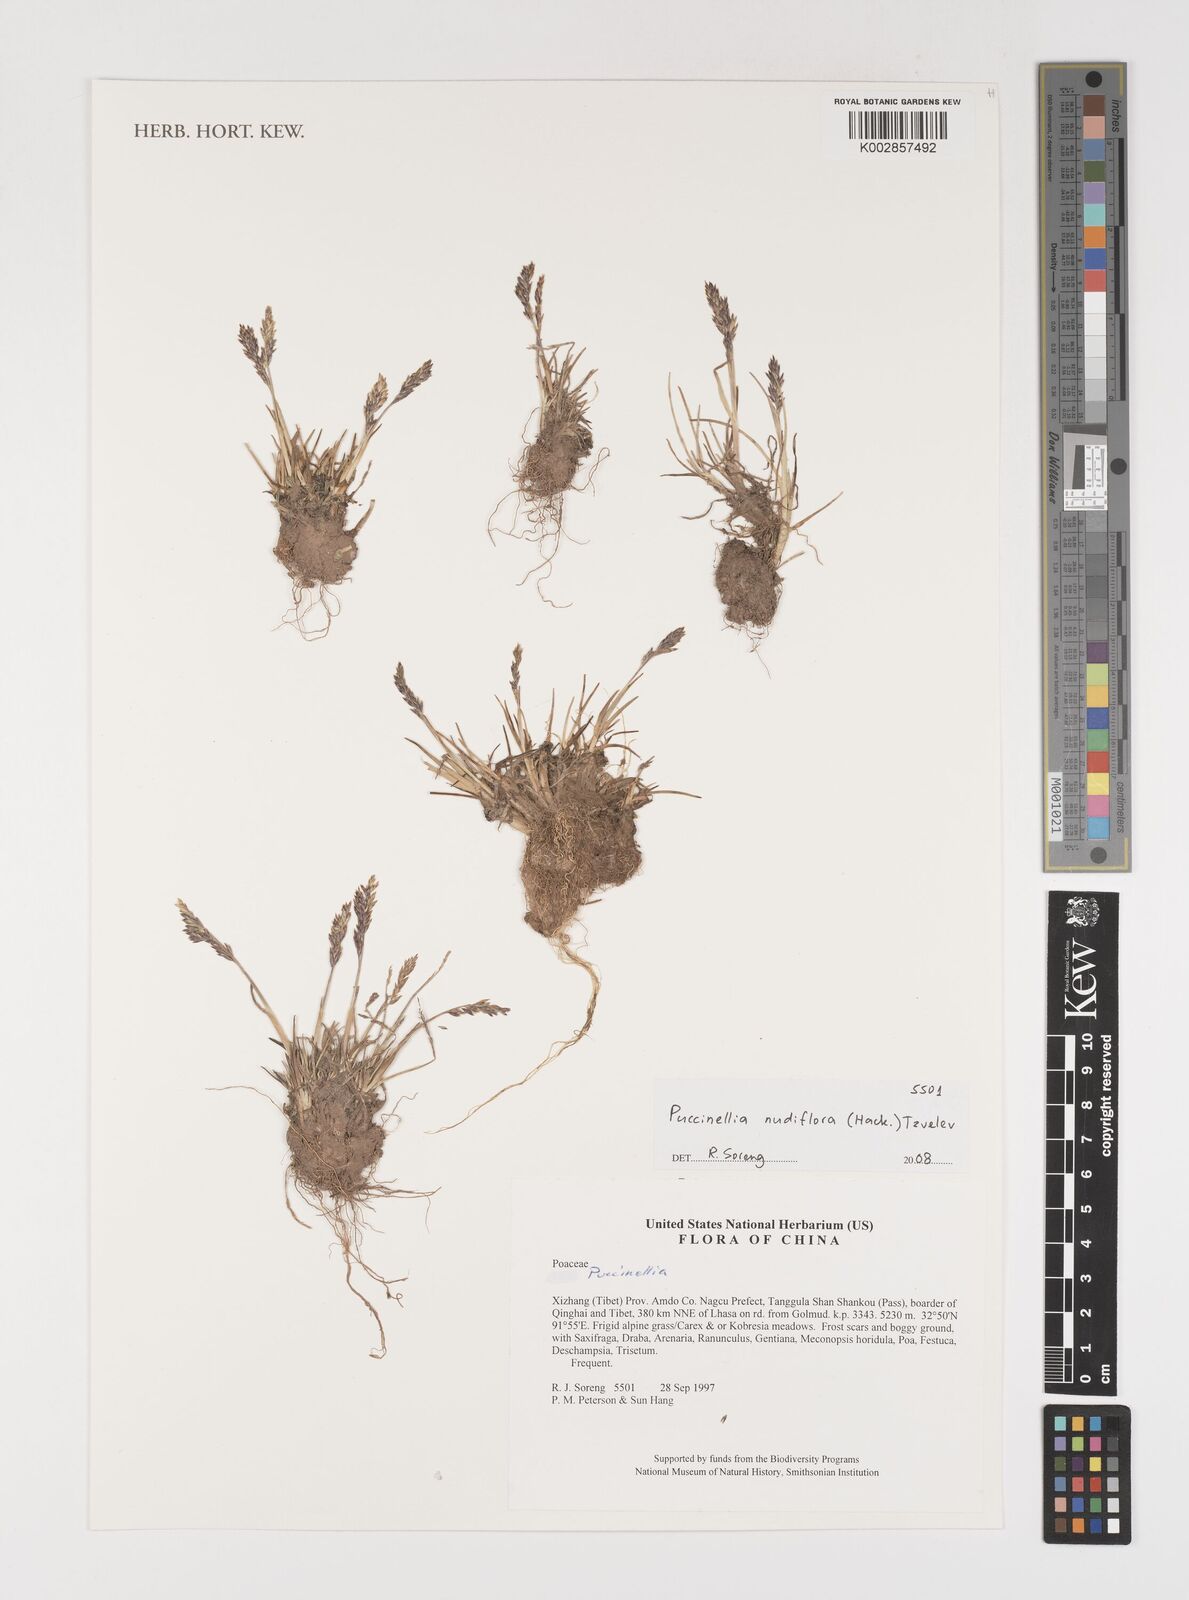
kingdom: Plantae
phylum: Tracheophyta
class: Liliopsida
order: Poales
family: Poaceae
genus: Puccinellia
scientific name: Puccinellia nudiflora
